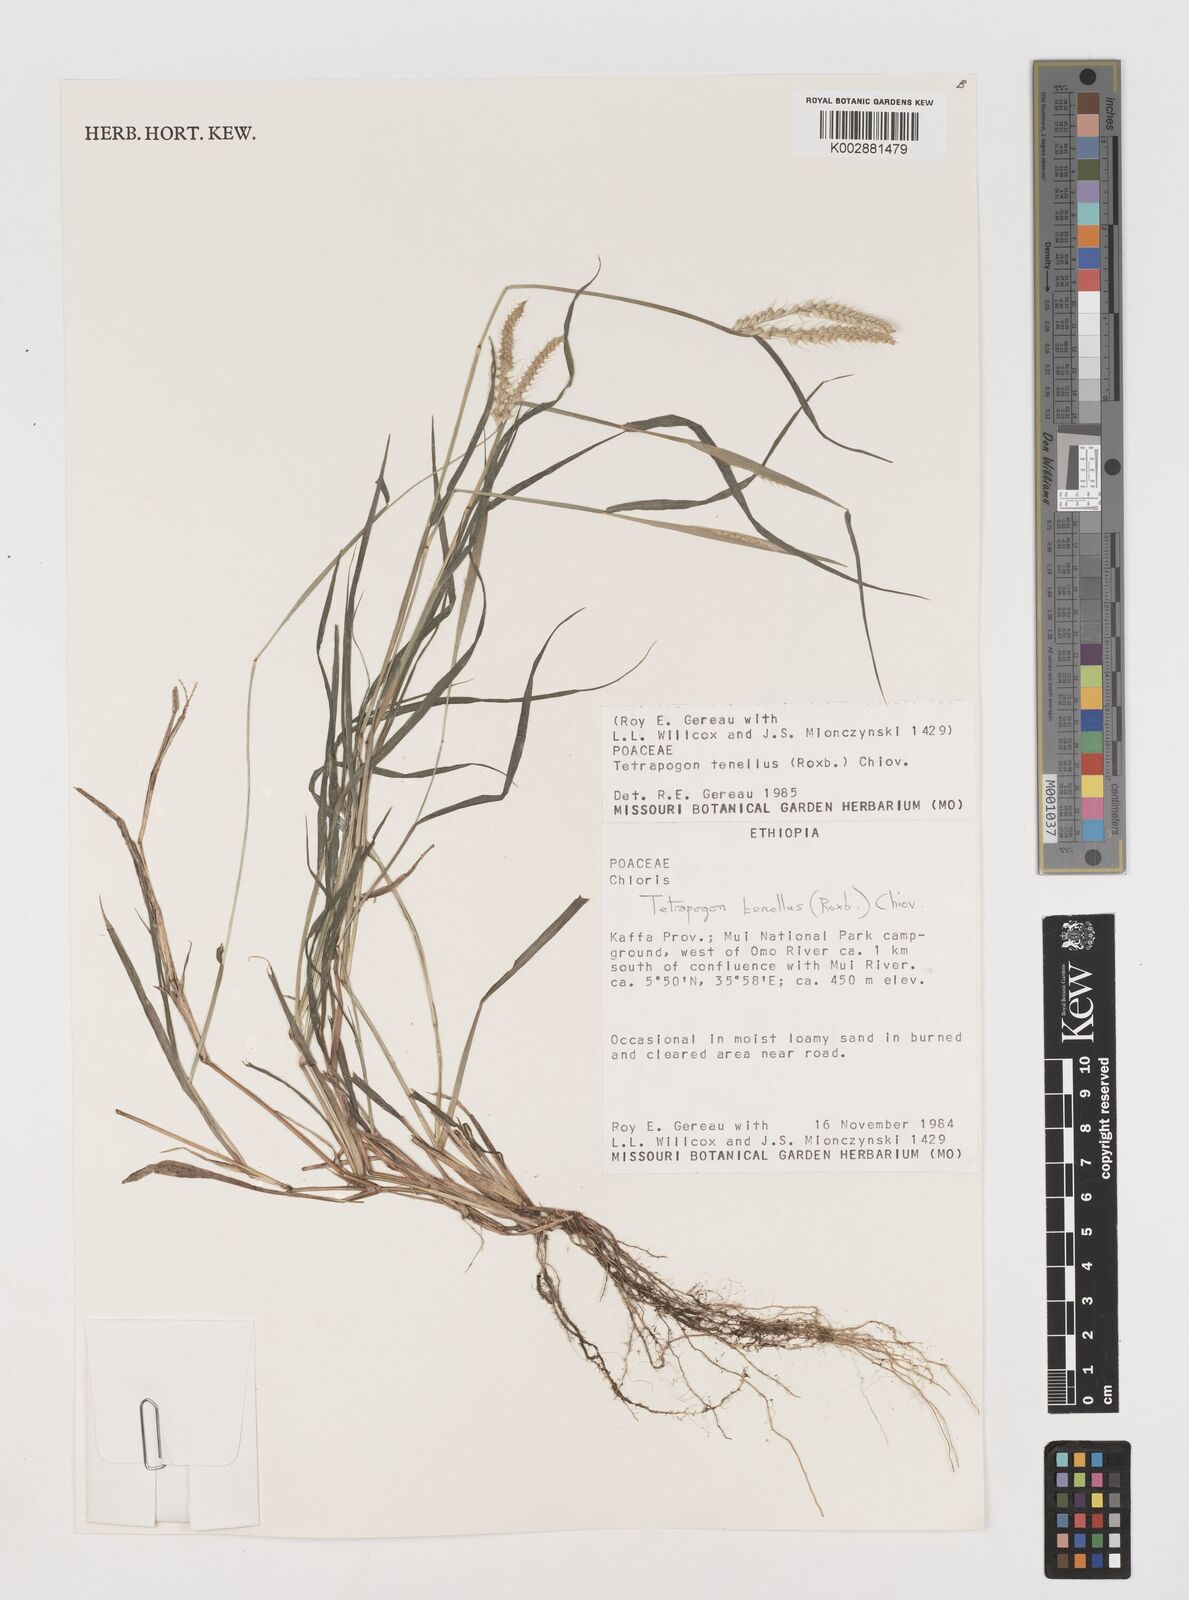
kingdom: Plantae
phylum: Tracheophyta
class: Liliopsida
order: Poales
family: Poaceae
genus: Tetrapogon
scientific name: Tetrapogon tenellus
